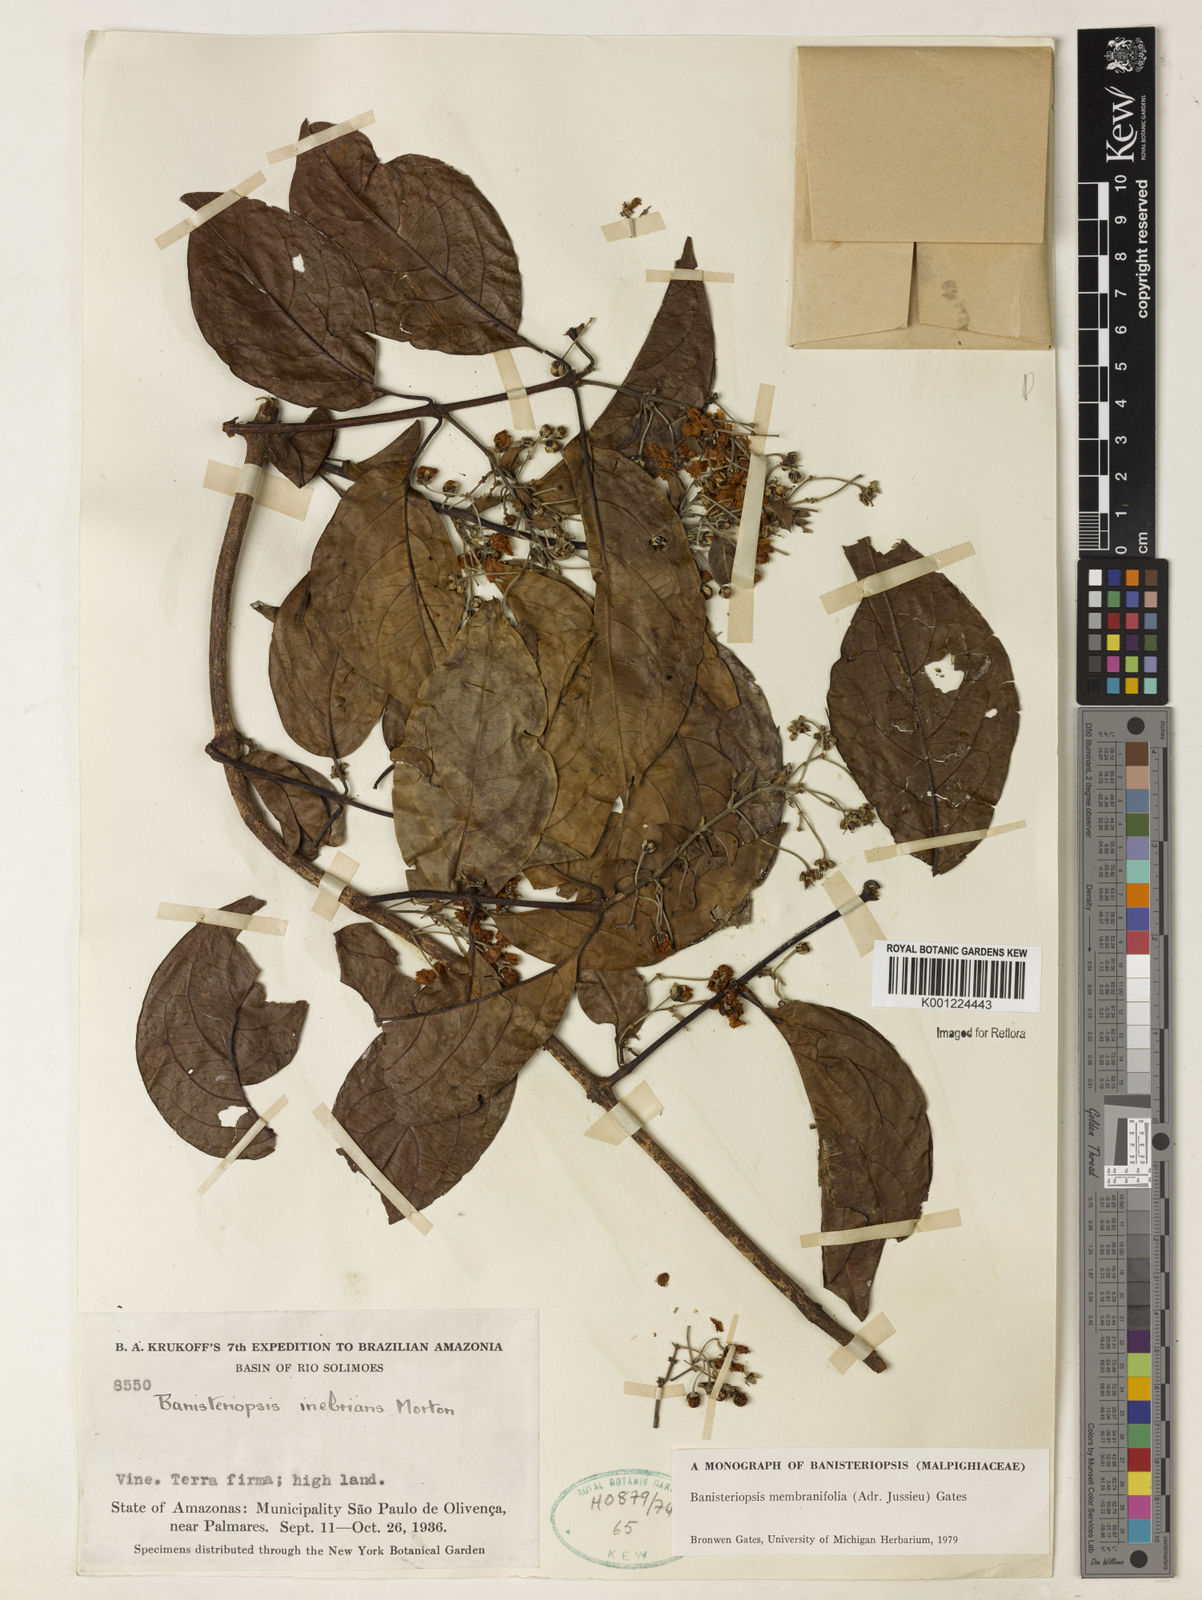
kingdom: Plantae
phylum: Tracheophyta
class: Magnoliopsida
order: Malpighiales
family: Malpighiaceae
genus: Banisteriopsis
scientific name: Banisteriopsis membranifolia
